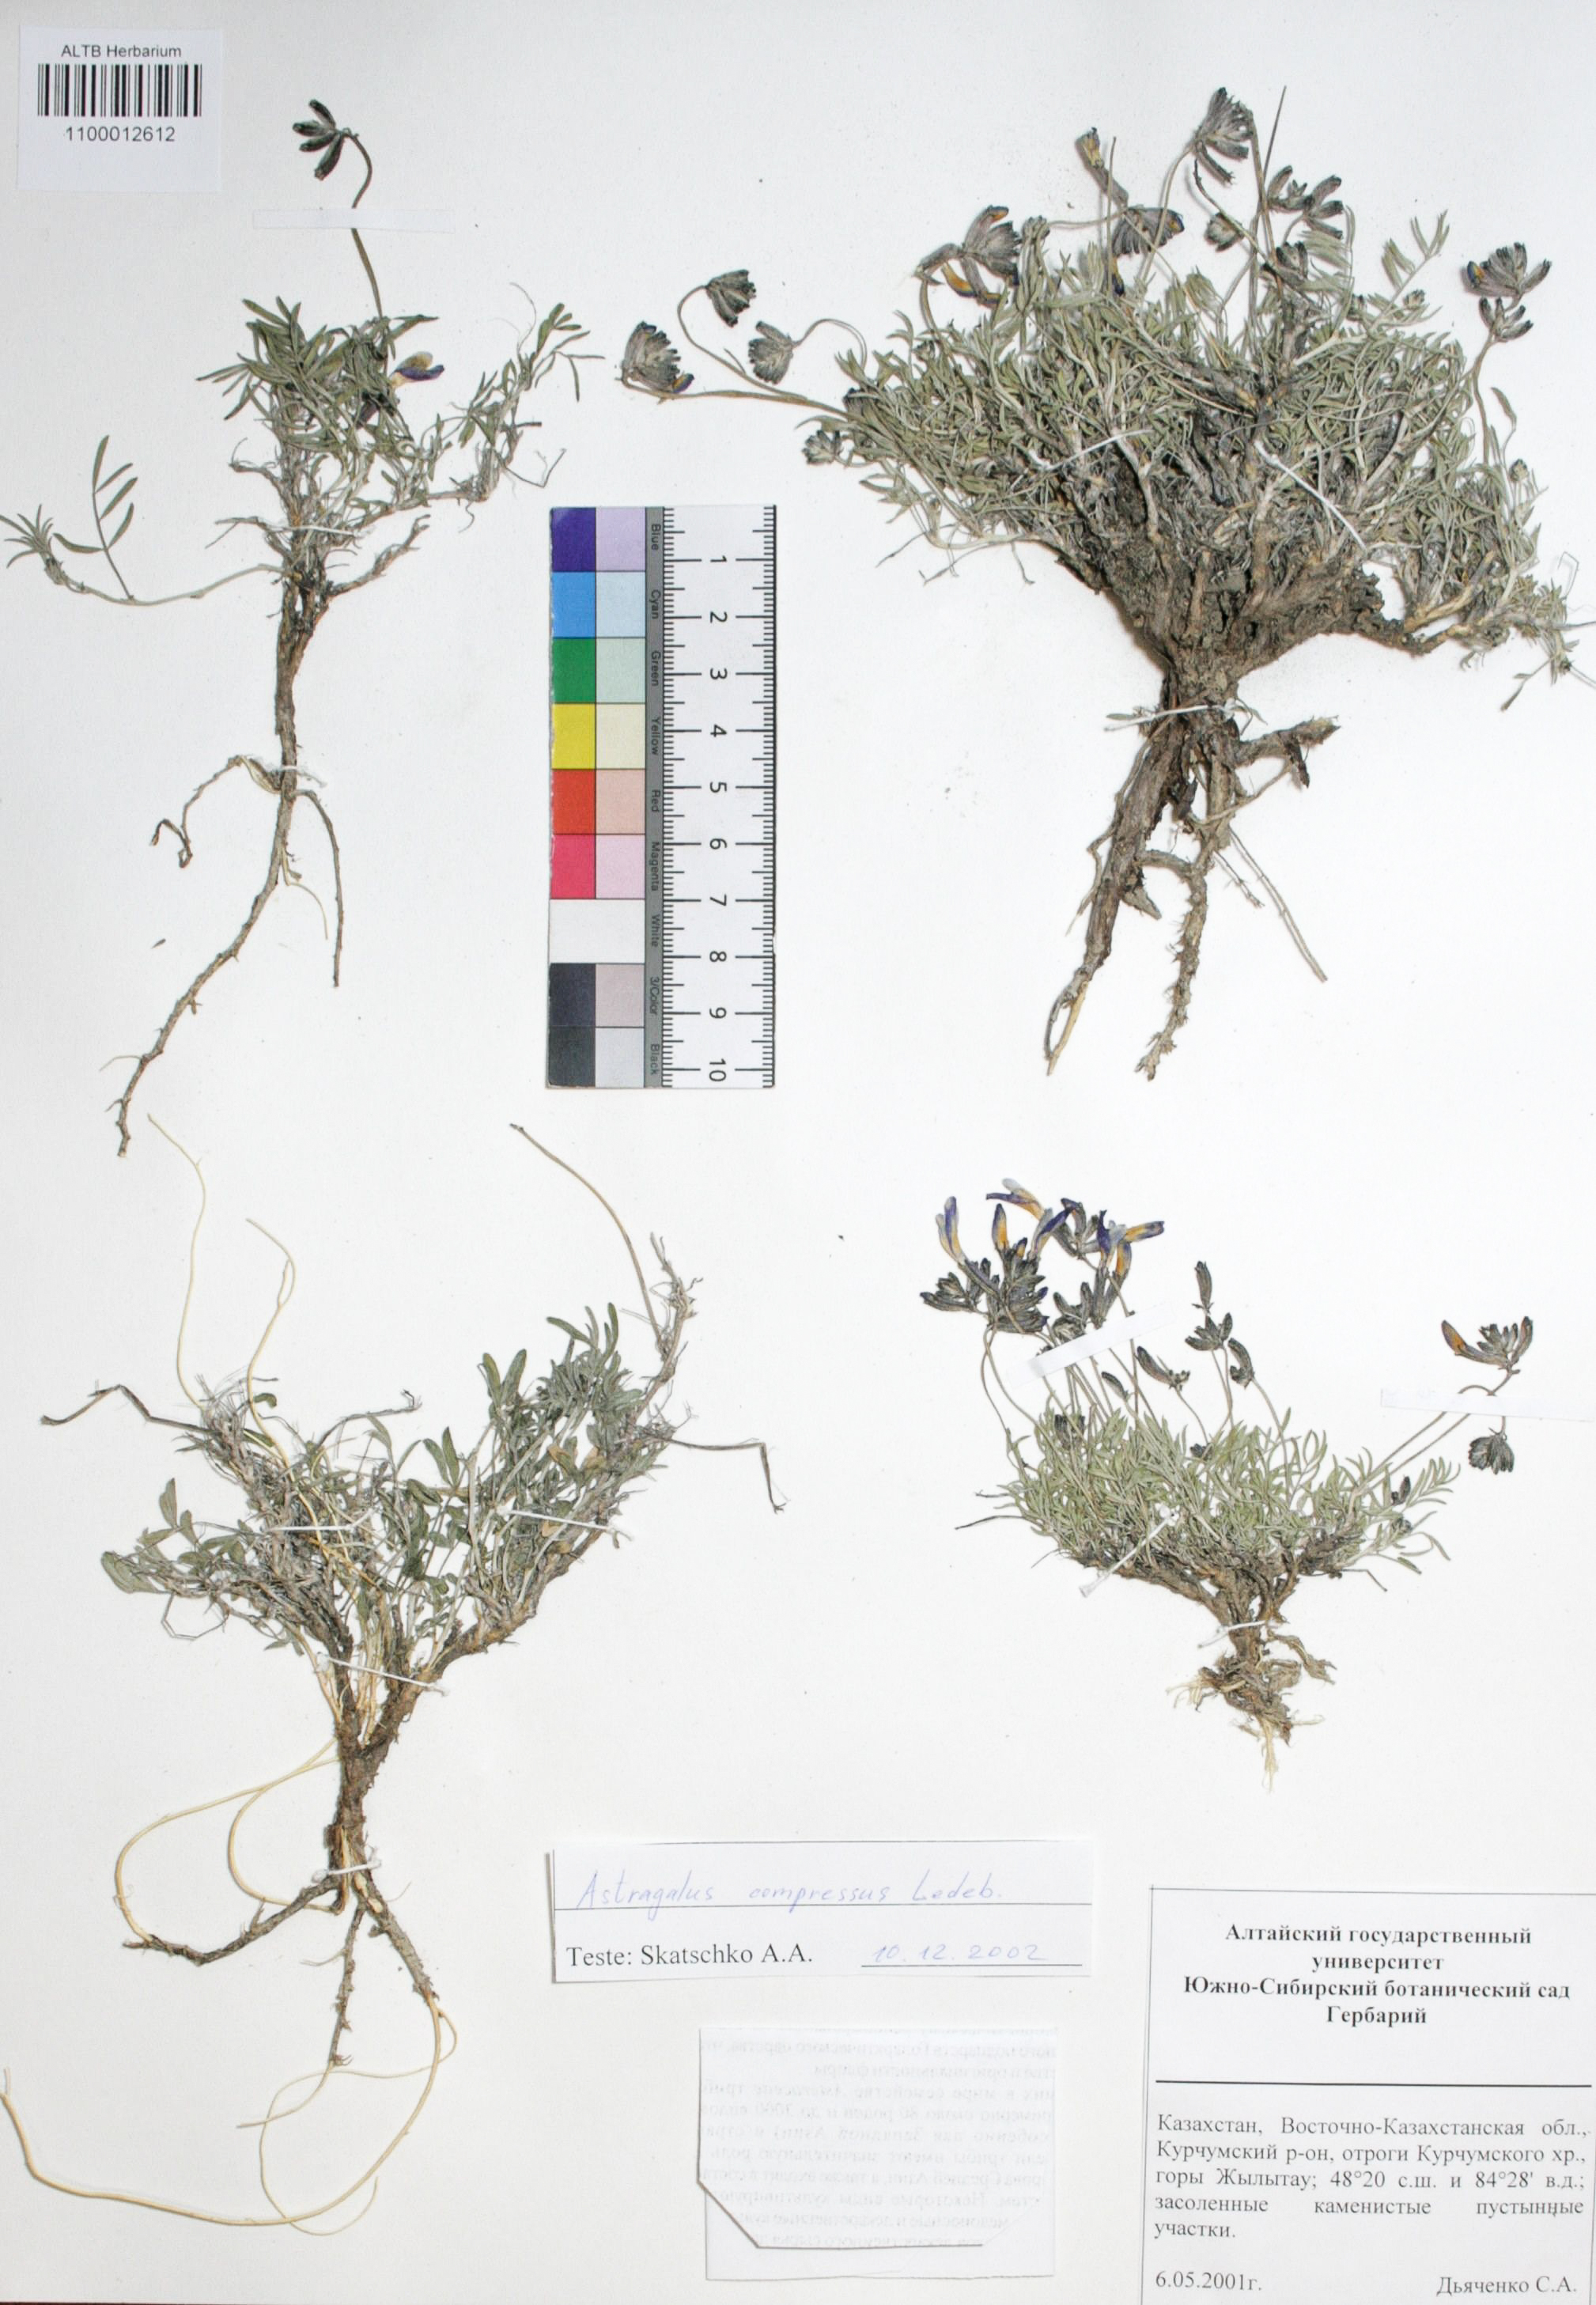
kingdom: Plantae
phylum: Tracheophyta
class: Magnoliopsida
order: Fabales
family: Fabaceae
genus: Astragalus
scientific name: Astragalus compressus
